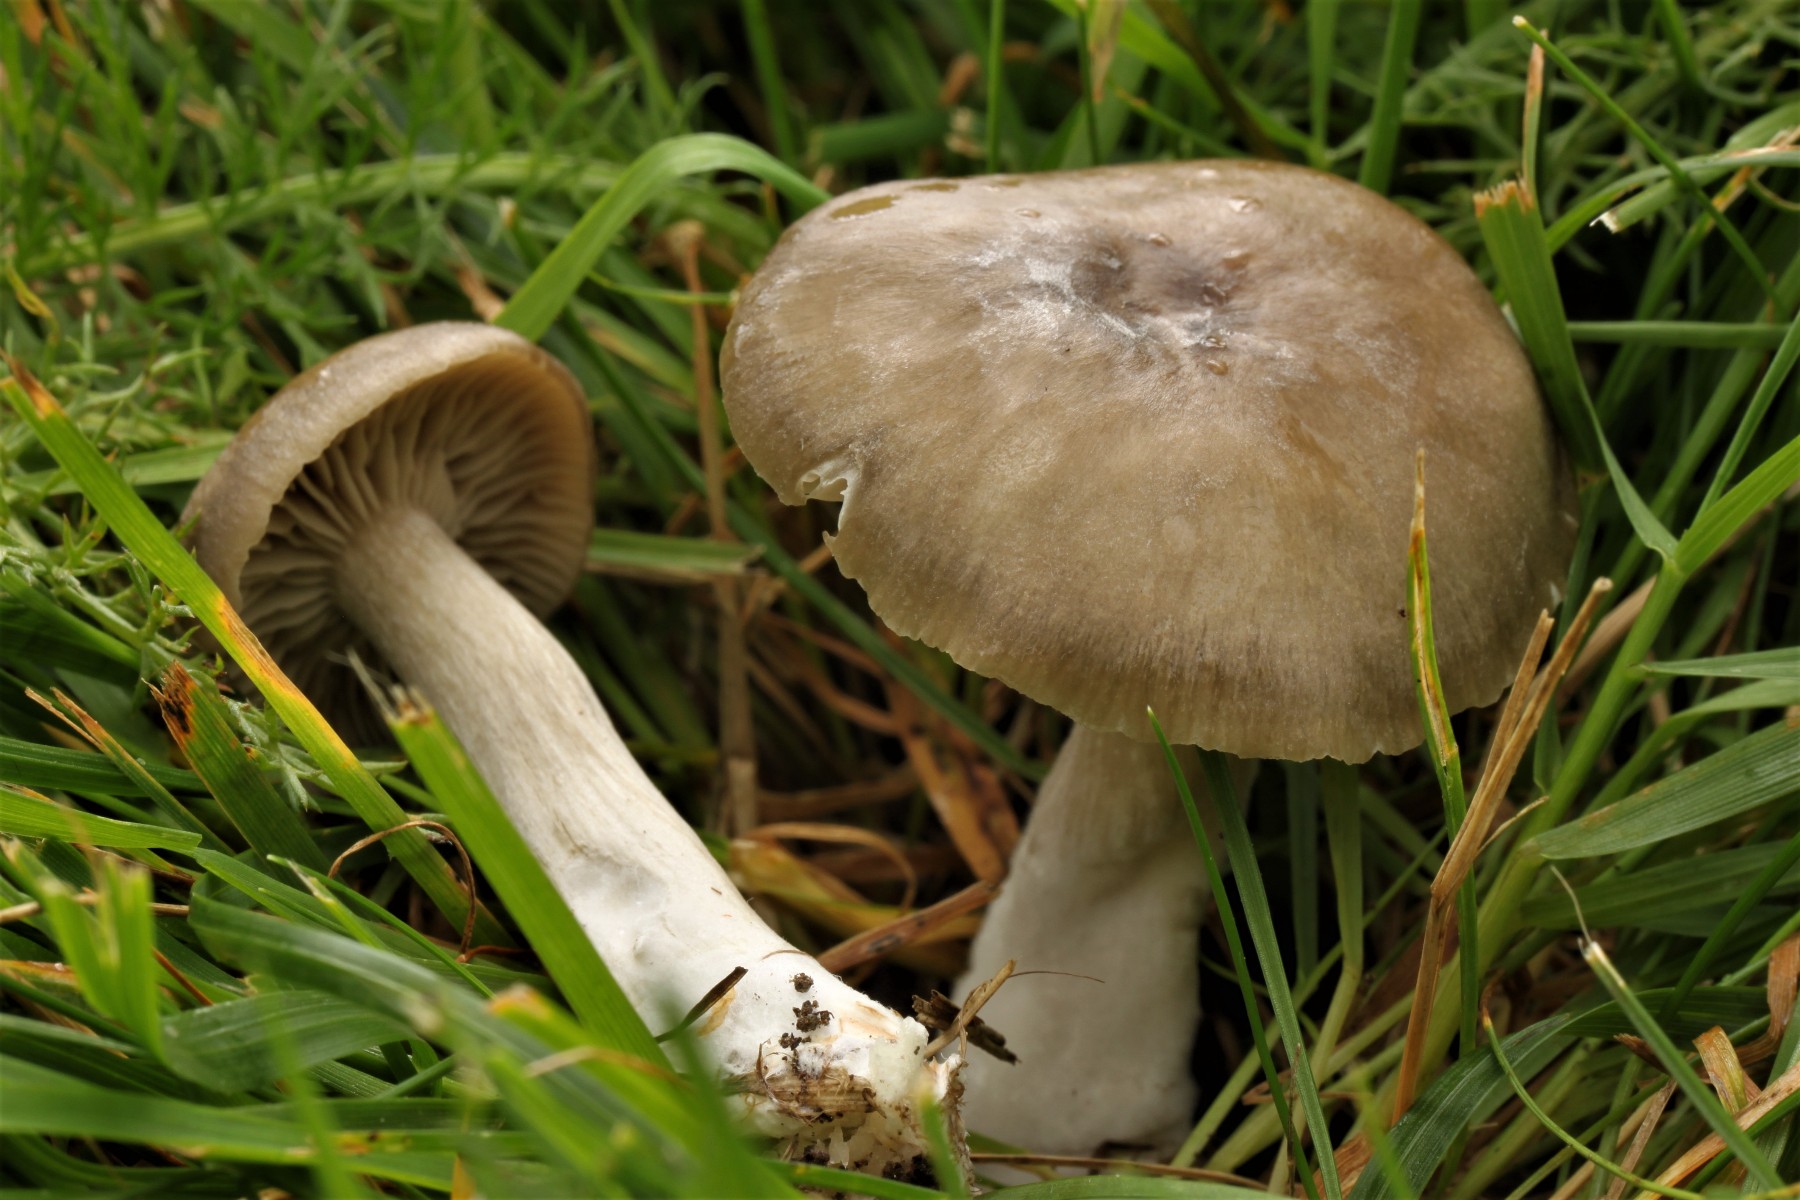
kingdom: Fungi
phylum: Basidiomycota
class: Agaricomycetes
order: Agaricales
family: Entolomataceae
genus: Entoloma
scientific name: Entoloma sericatum
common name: rank rødblad
